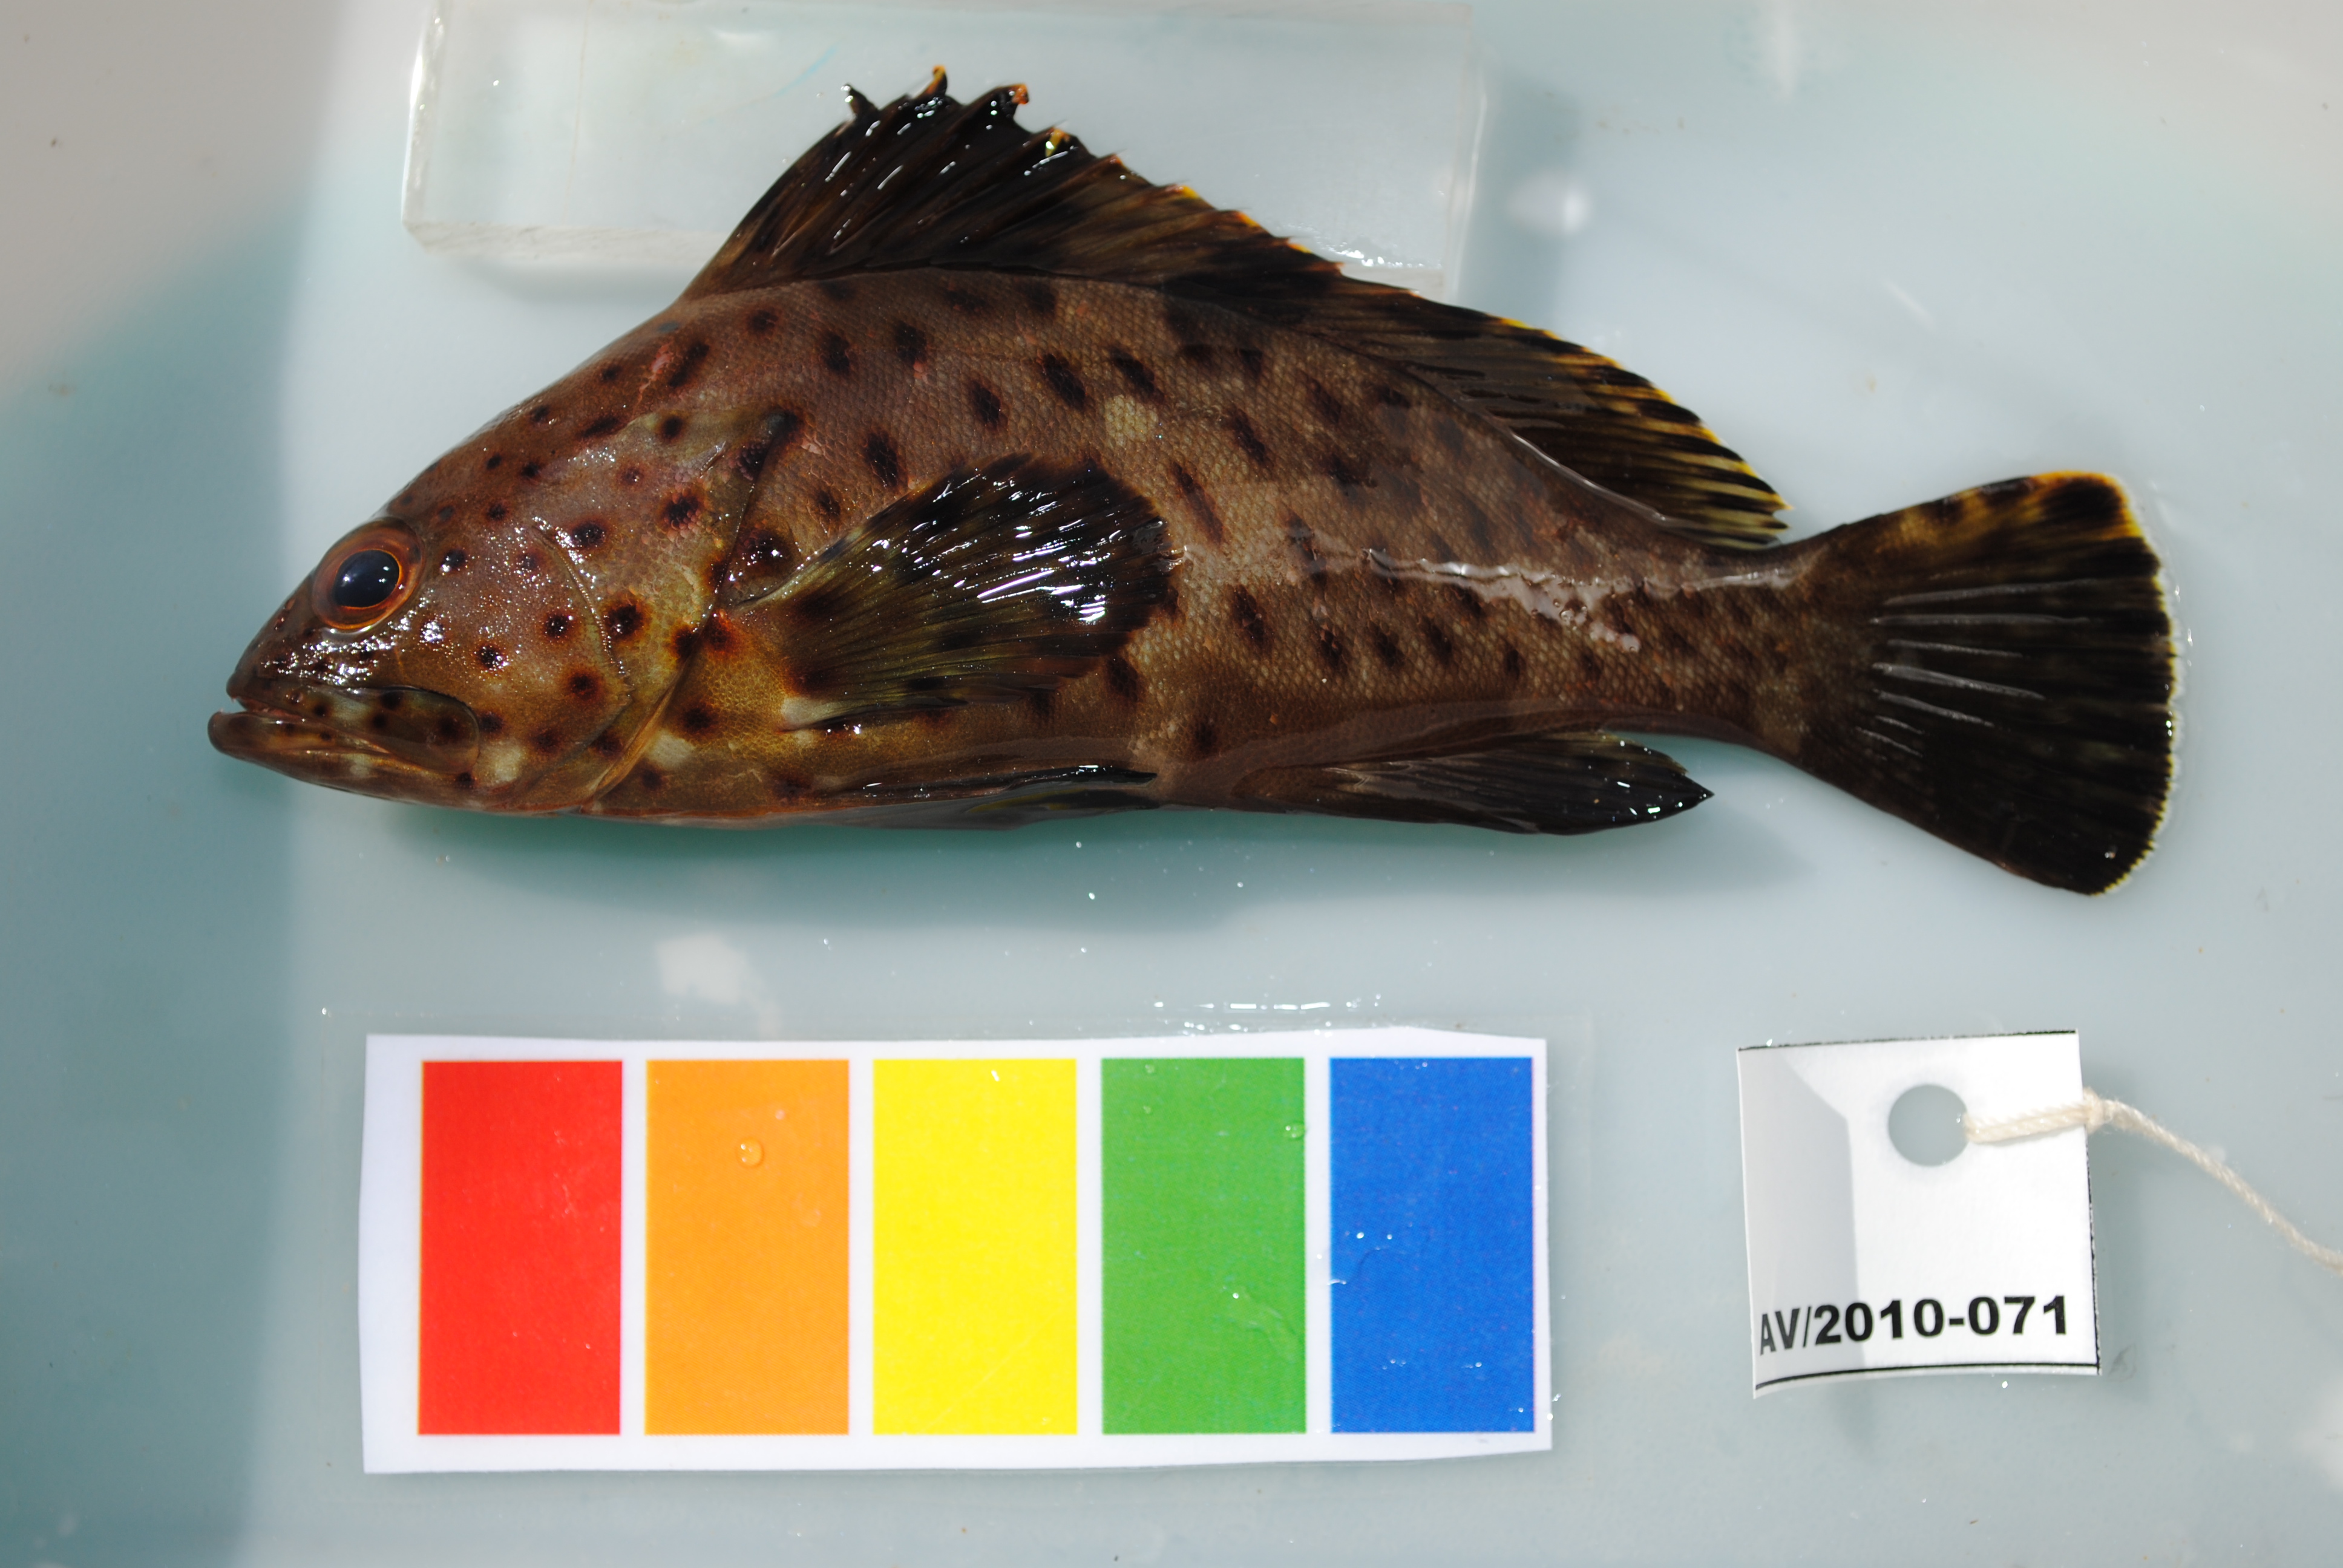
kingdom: Animalia
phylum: Chordata
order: Perciformes
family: Serranidae
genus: Epinephelus
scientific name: Epinephelus longispinis
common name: Longspine grouper
